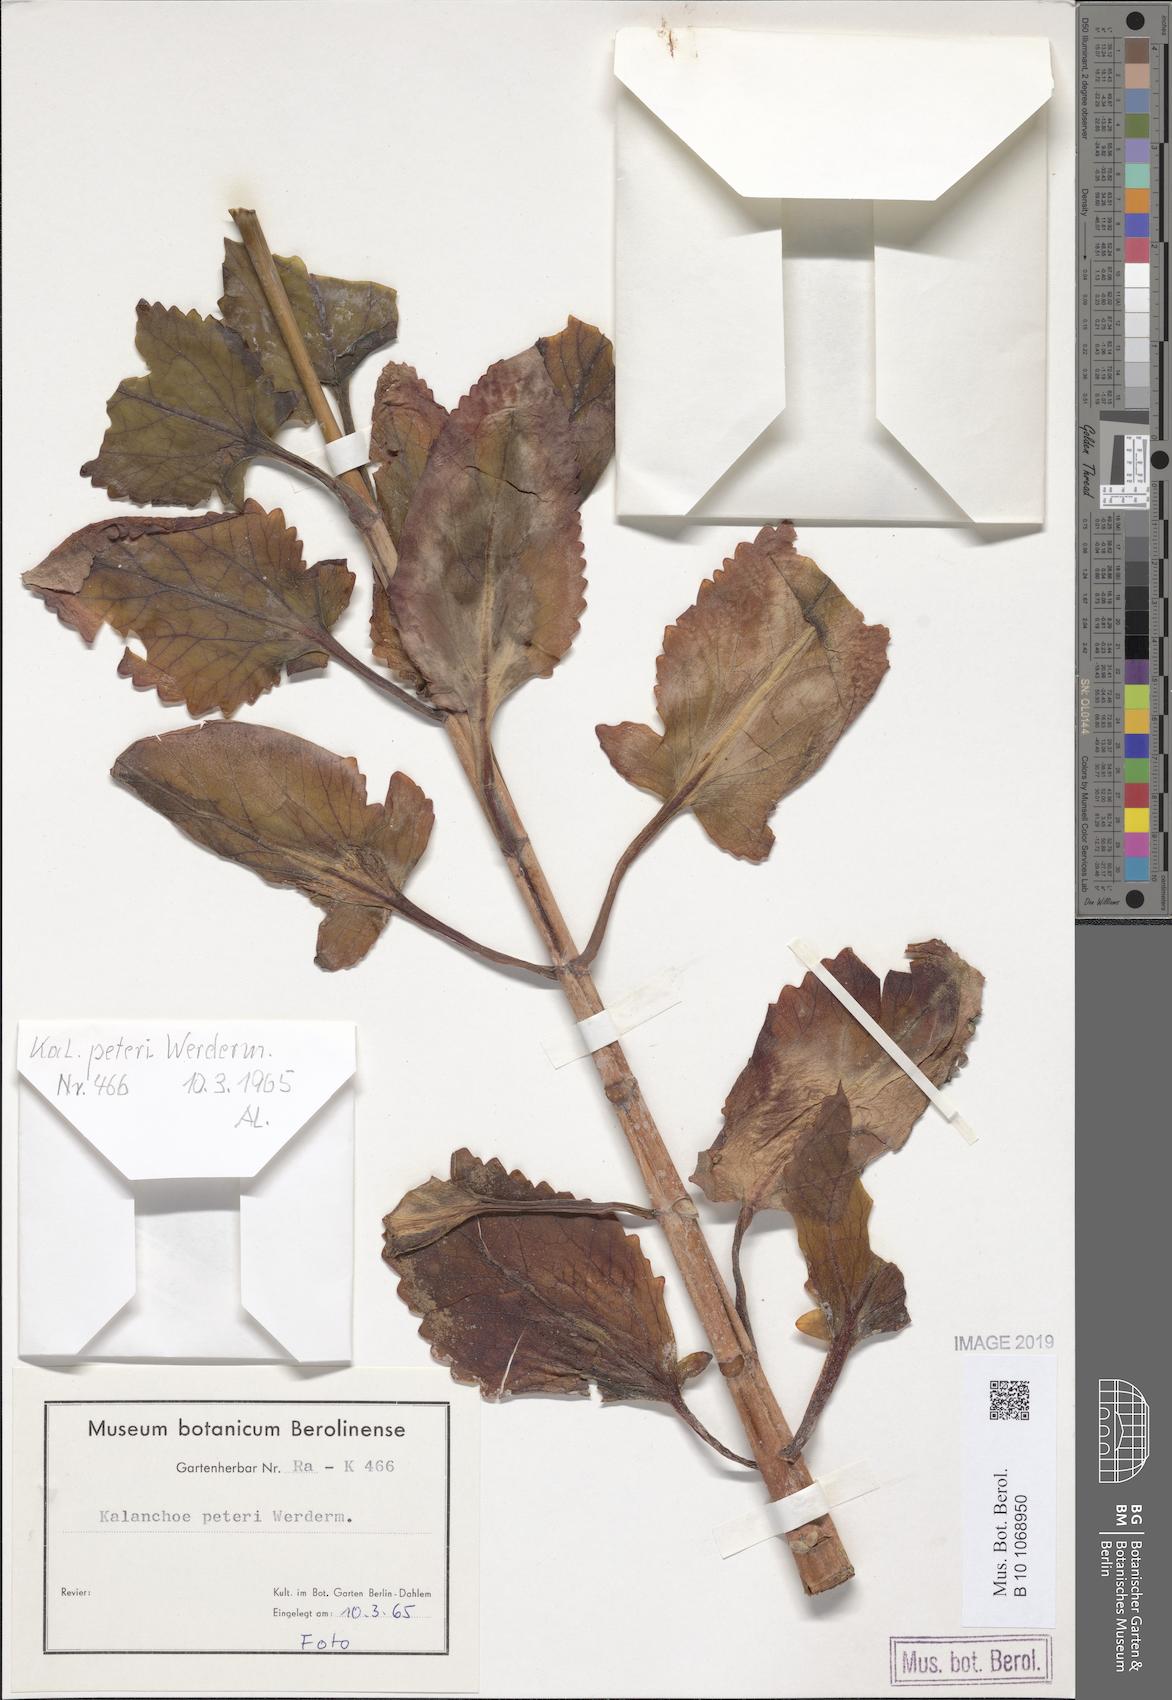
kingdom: Plantae
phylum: Tracheophyta
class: Magnoliopsida
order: Saxifragales
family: Crassulaceae
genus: Kalanchoe
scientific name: Kalanchoe peteri
